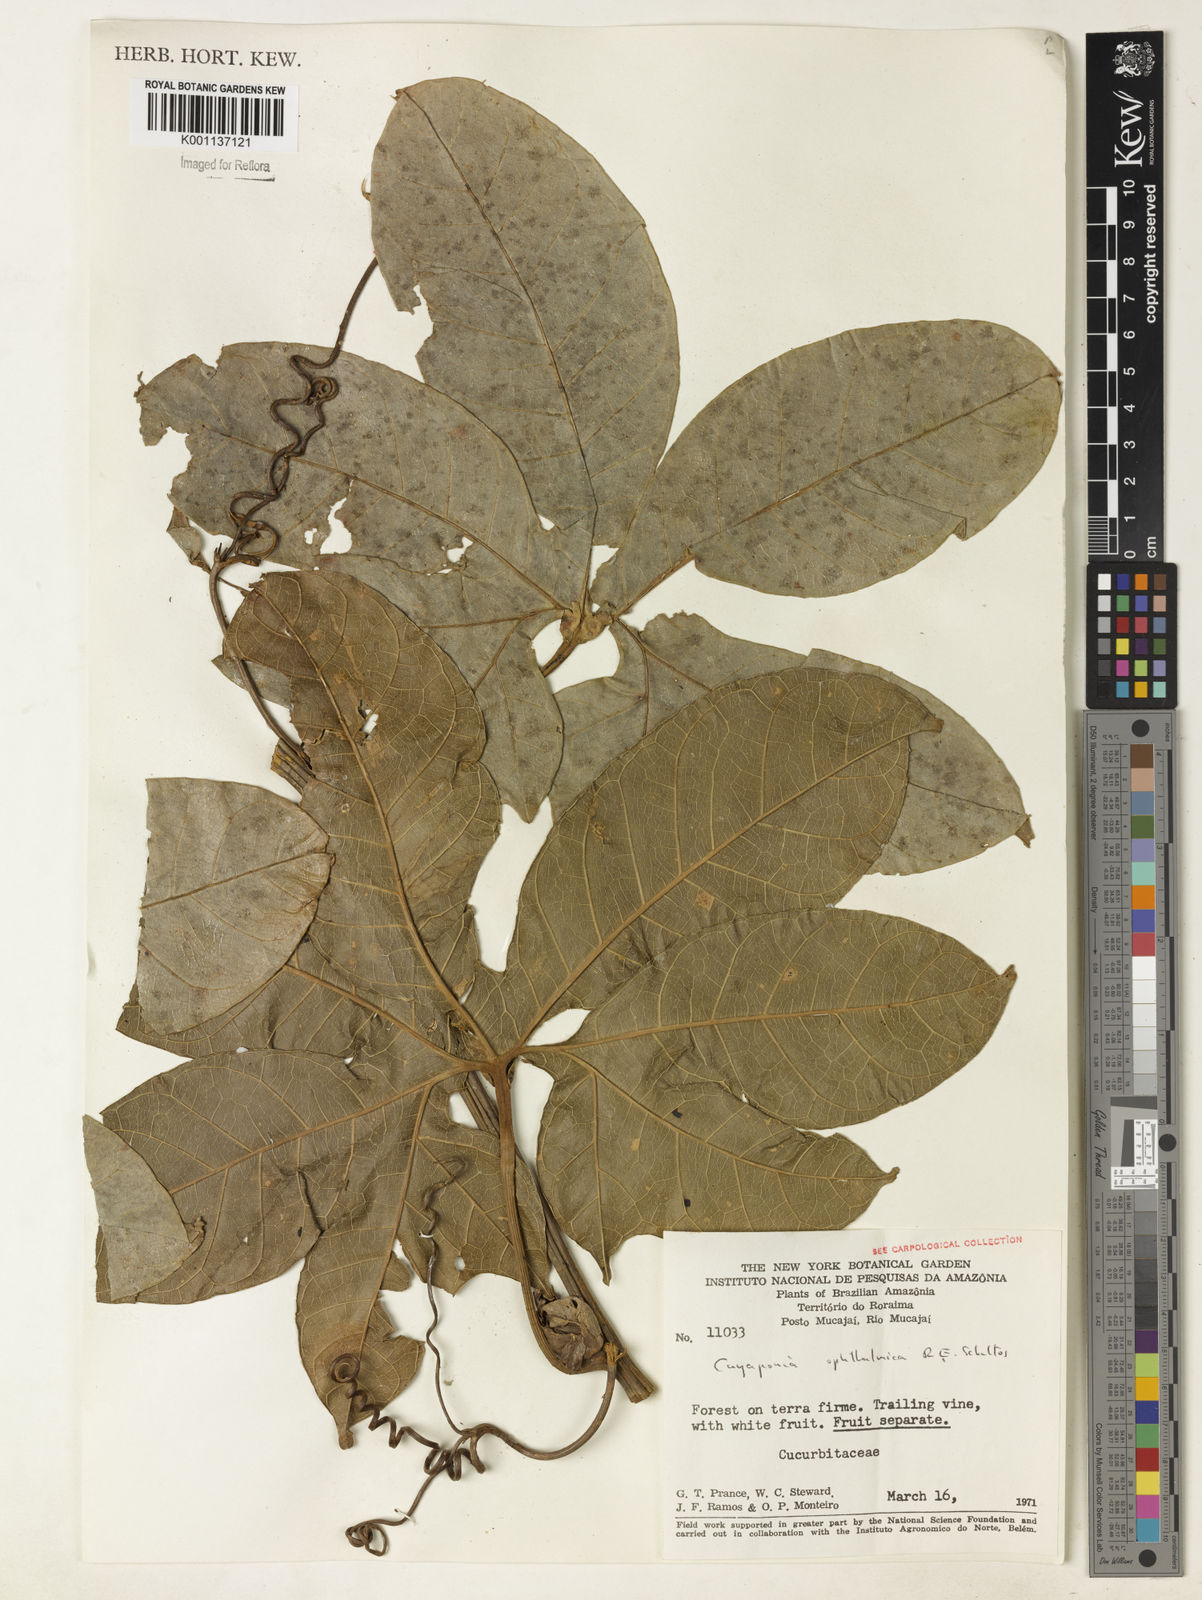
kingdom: Plantae
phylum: Tracheophyta
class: Magnoliopsida
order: Cucurbitales
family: Cucurbitaceae
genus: Cayaponia
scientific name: Cayaponia ophthalmica
